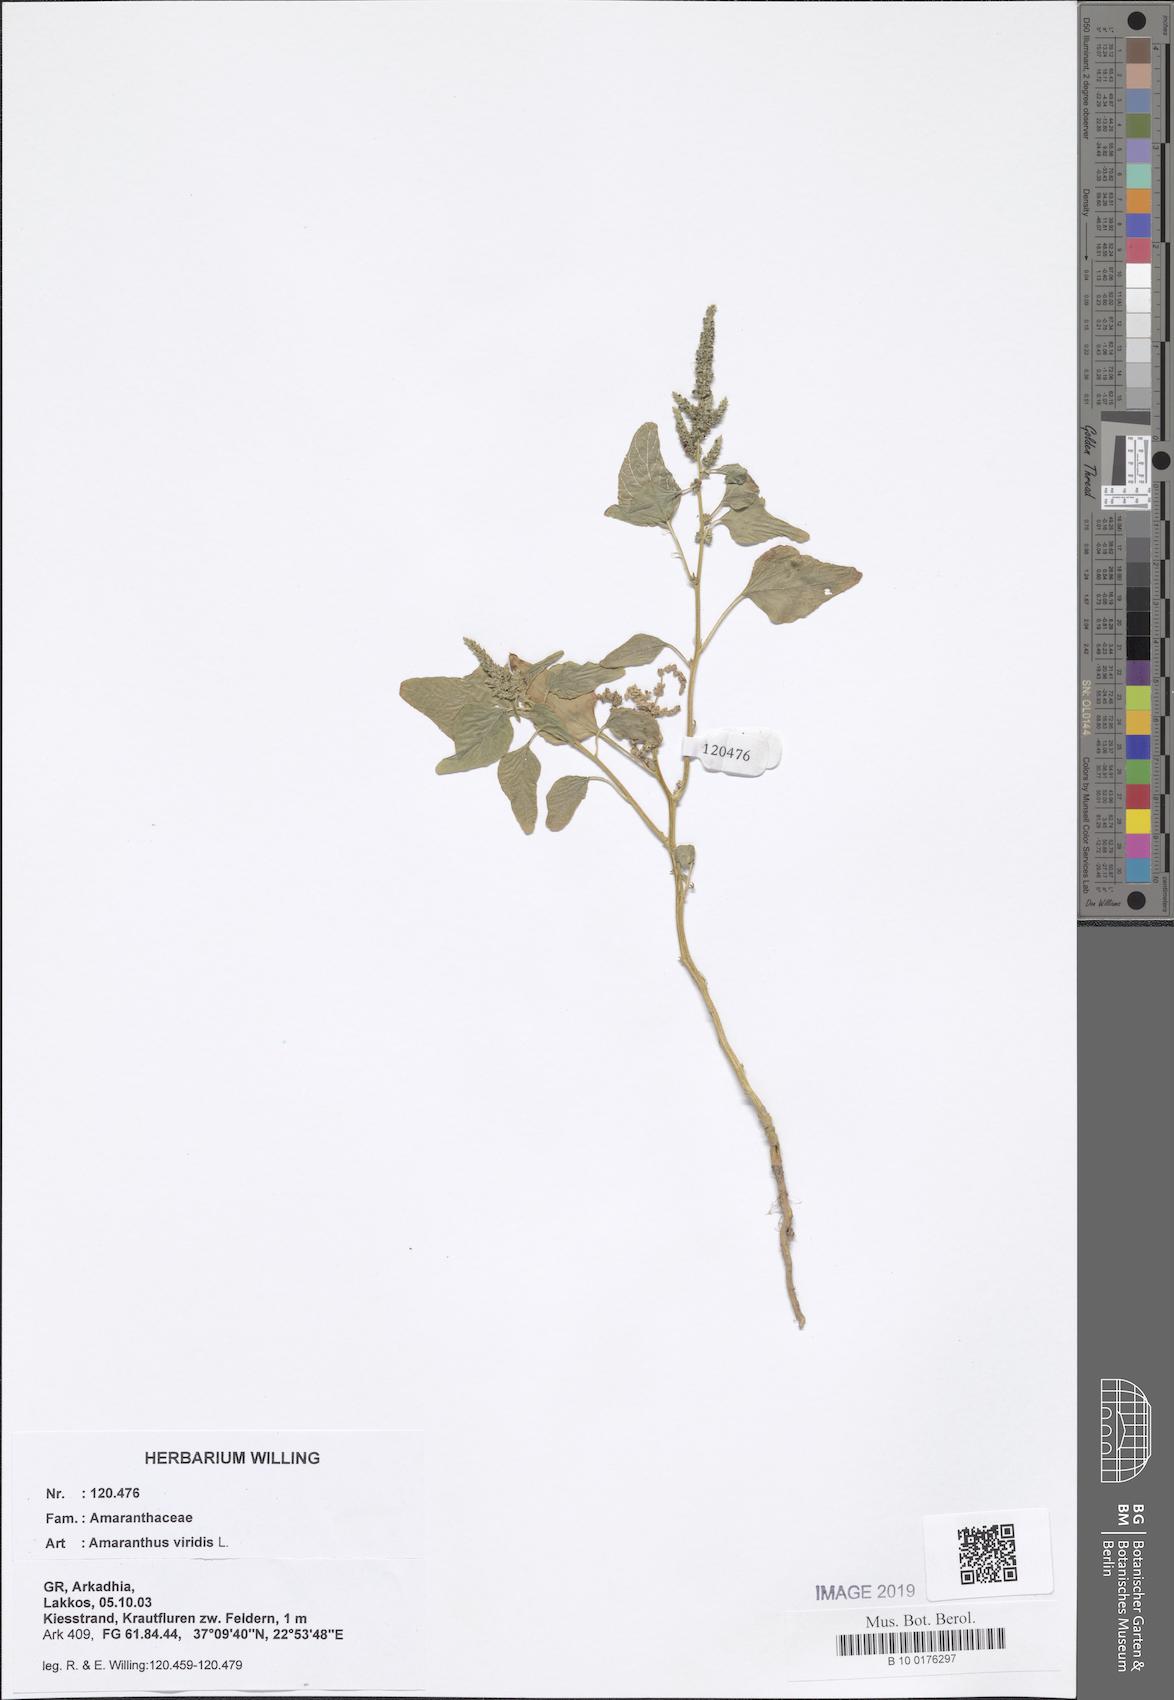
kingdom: Plantae
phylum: Tracheophyta
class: Magnoliopsida
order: Caryophyllales
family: Amaranthaceae
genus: Amaranthus
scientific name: Amaranthus viridis
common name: Slender amaranth
